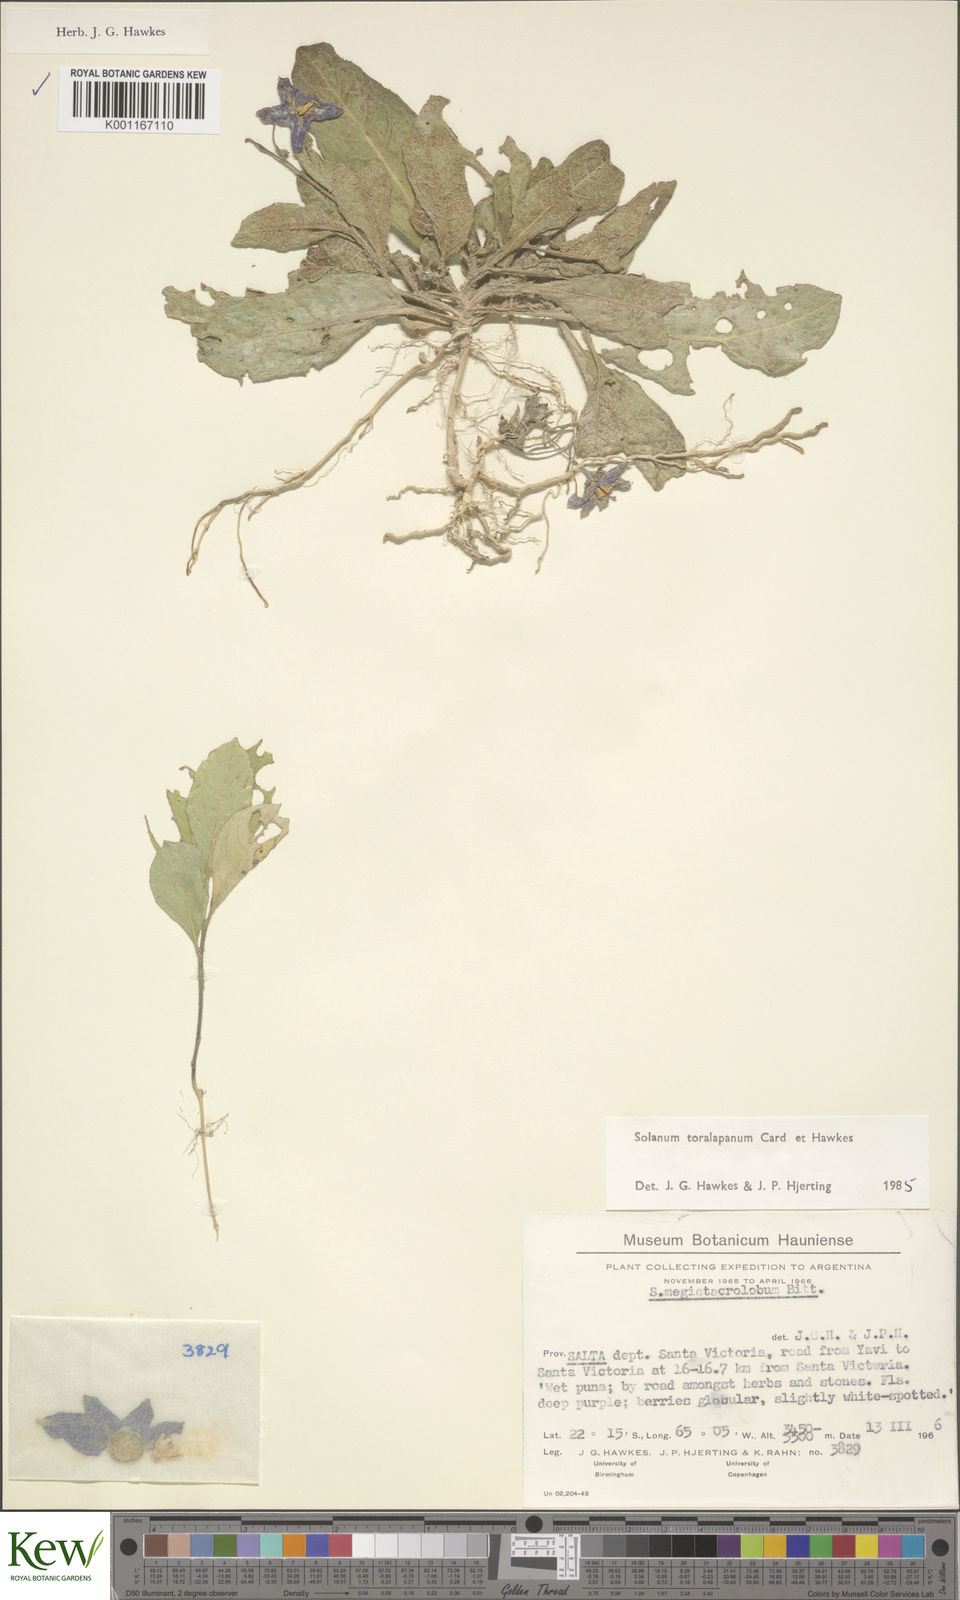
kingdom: Plantae
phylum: Tracheophyta
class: Magnoliopsida
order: Solanales
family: Solanaceae
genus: Solanum
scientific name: Solanum
